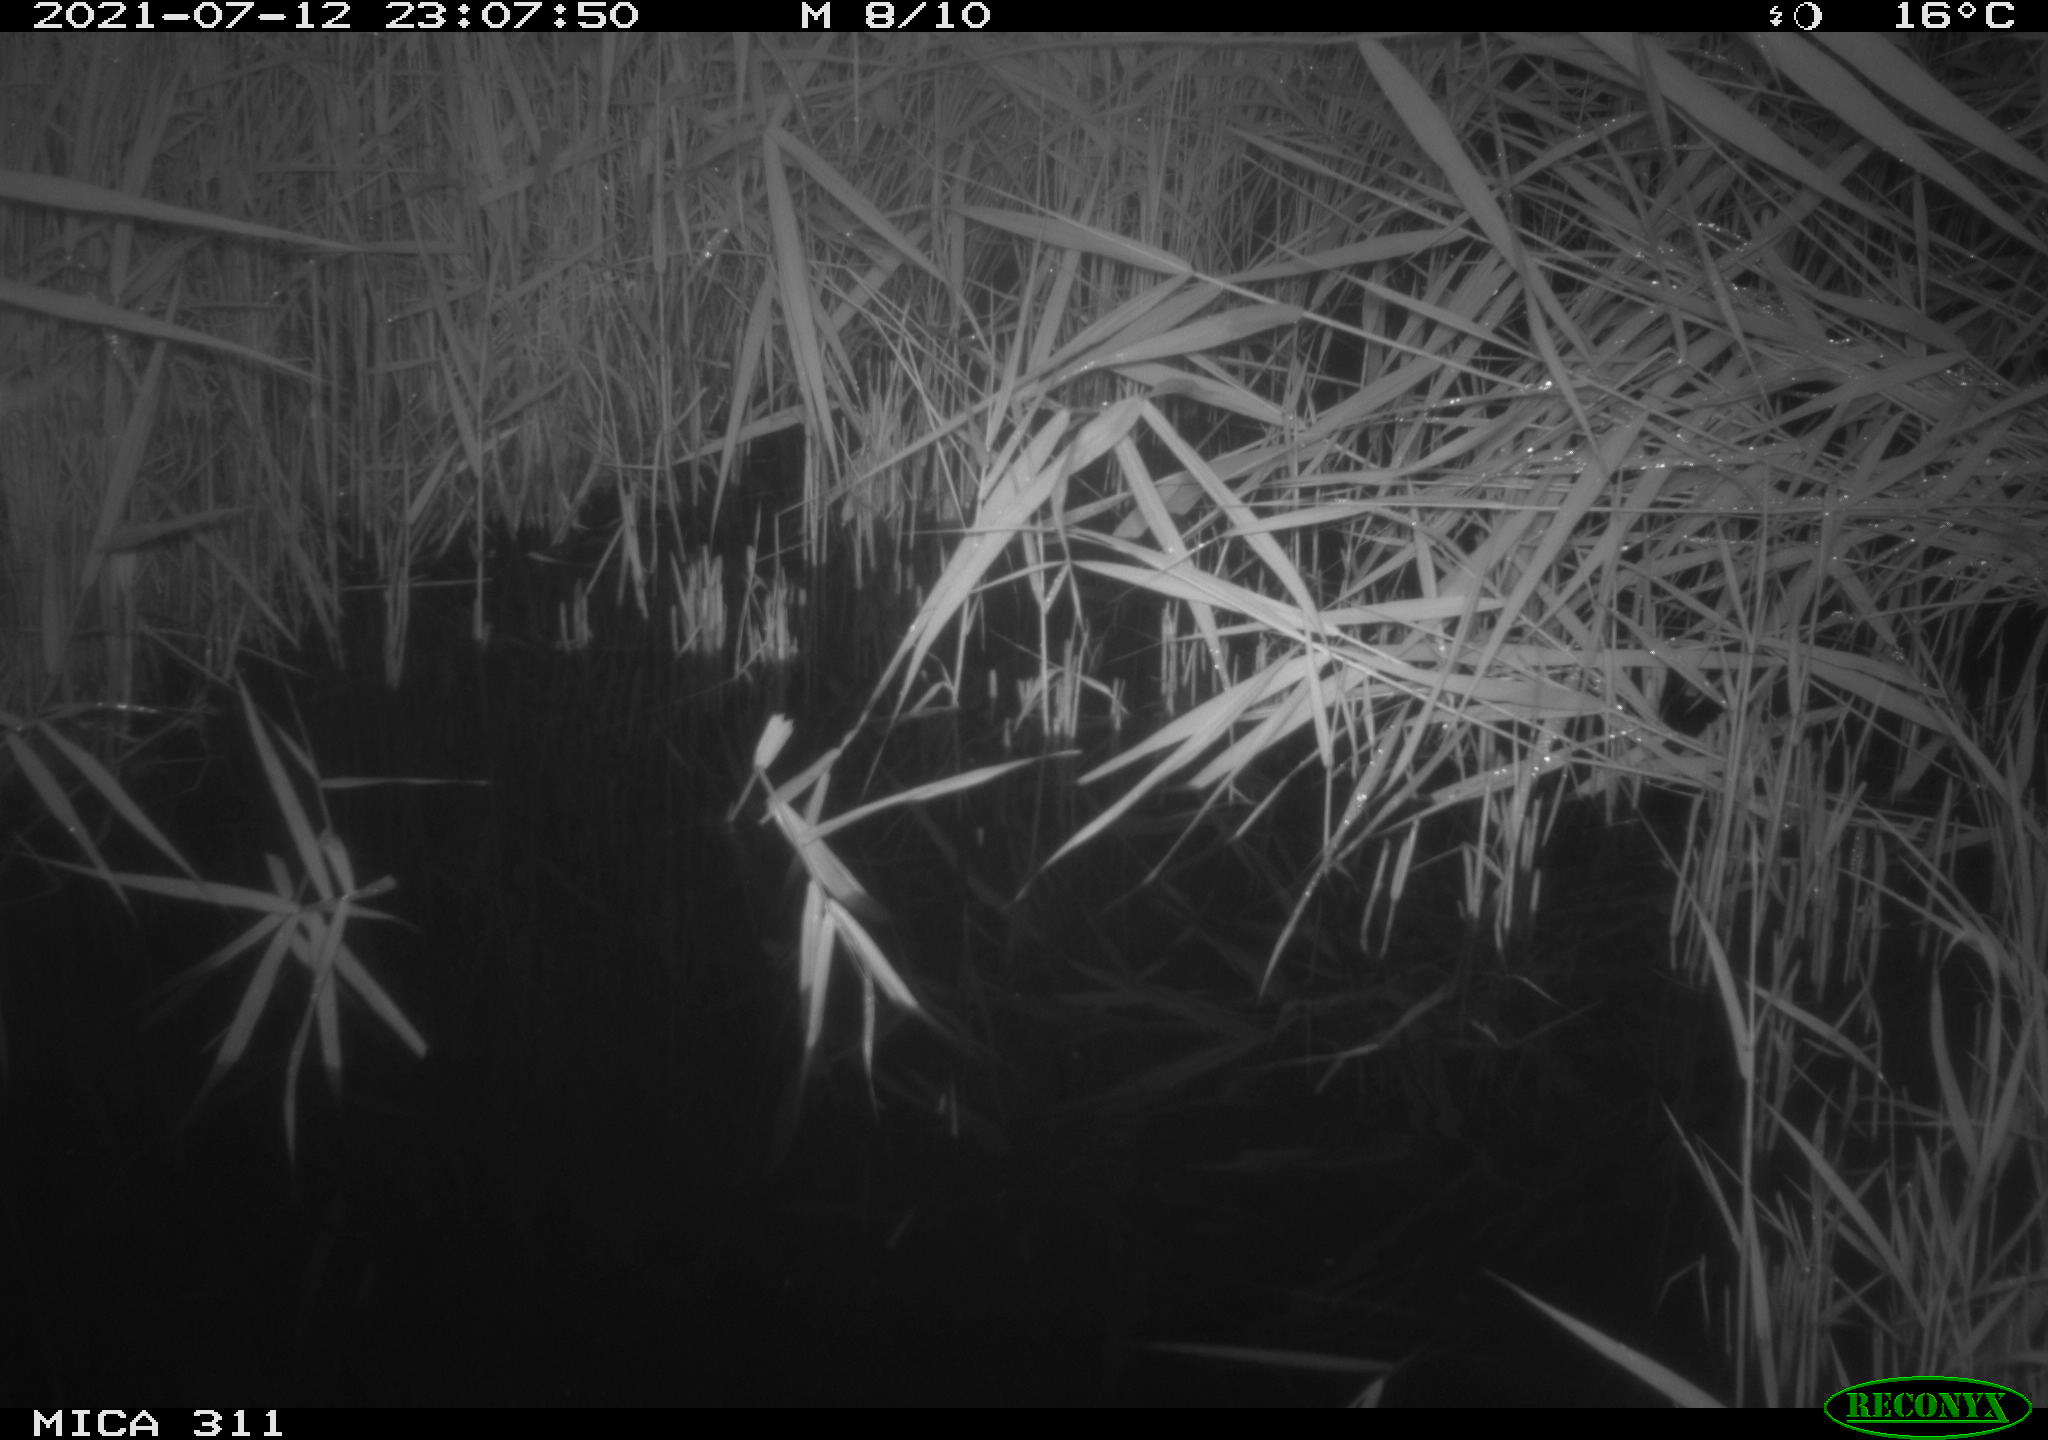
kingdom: Animalia
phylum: Chordata
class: Mammalia
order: Rodentia
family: Muridae
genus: Rattus
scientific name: Rattus norvegicus
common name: Brown rat
